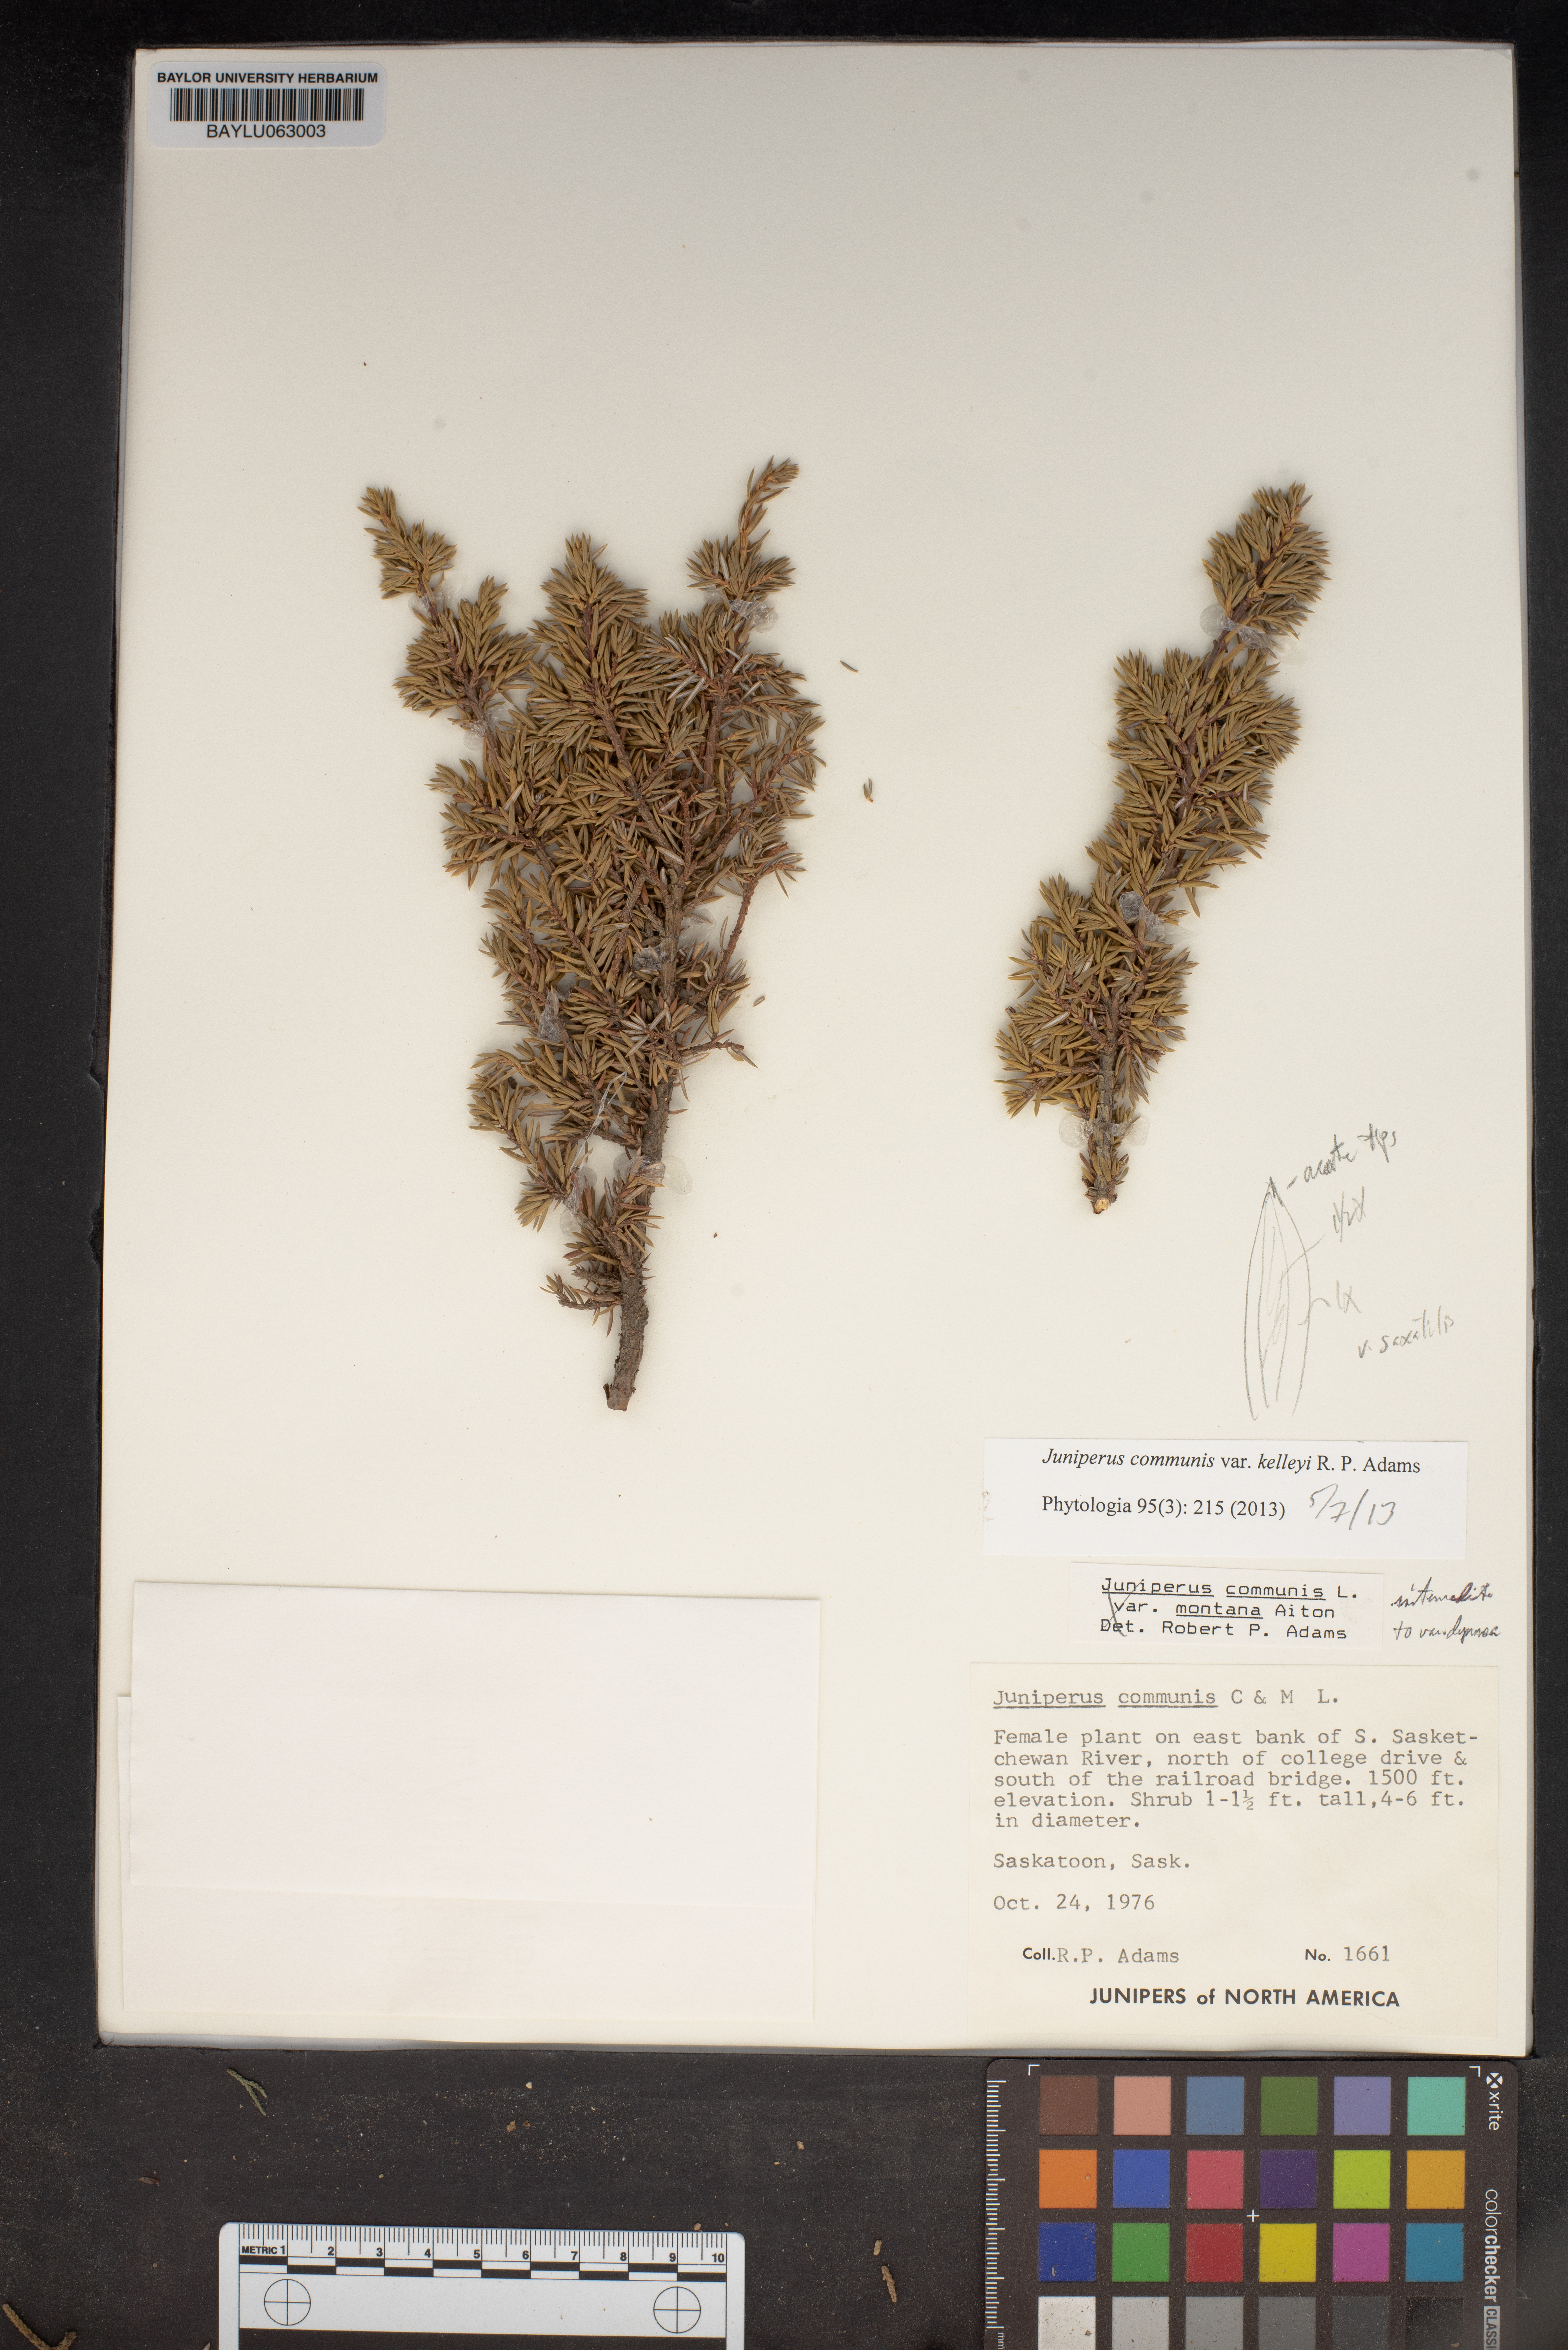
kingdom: Plantae
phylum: Tracheophyta
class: Pinopsida
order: Pinales
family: Cupressaceae
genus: Juniperus
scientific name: Juniperus communis
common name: Common juniper
